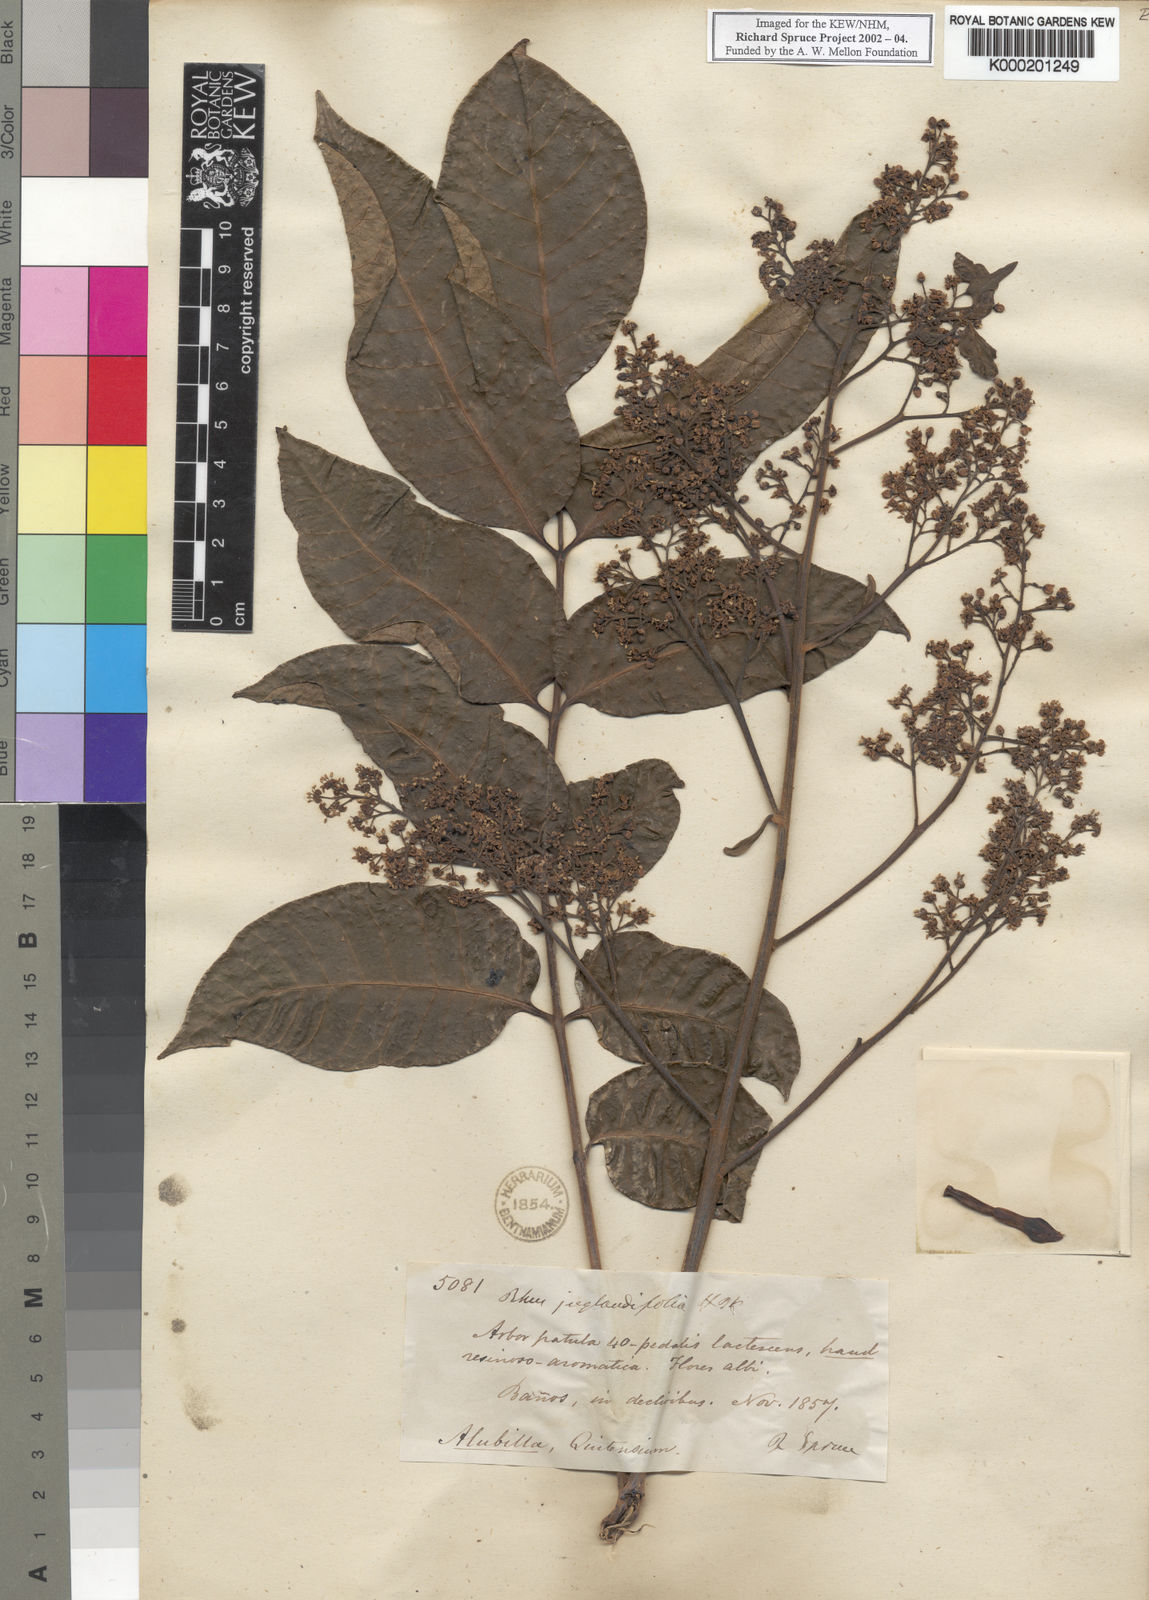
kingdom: Plantae
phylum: Tracheophyta
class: Magnoliopsida
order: Sapindales
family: Anacardiaceae
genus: Rhus
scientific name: Rhus
